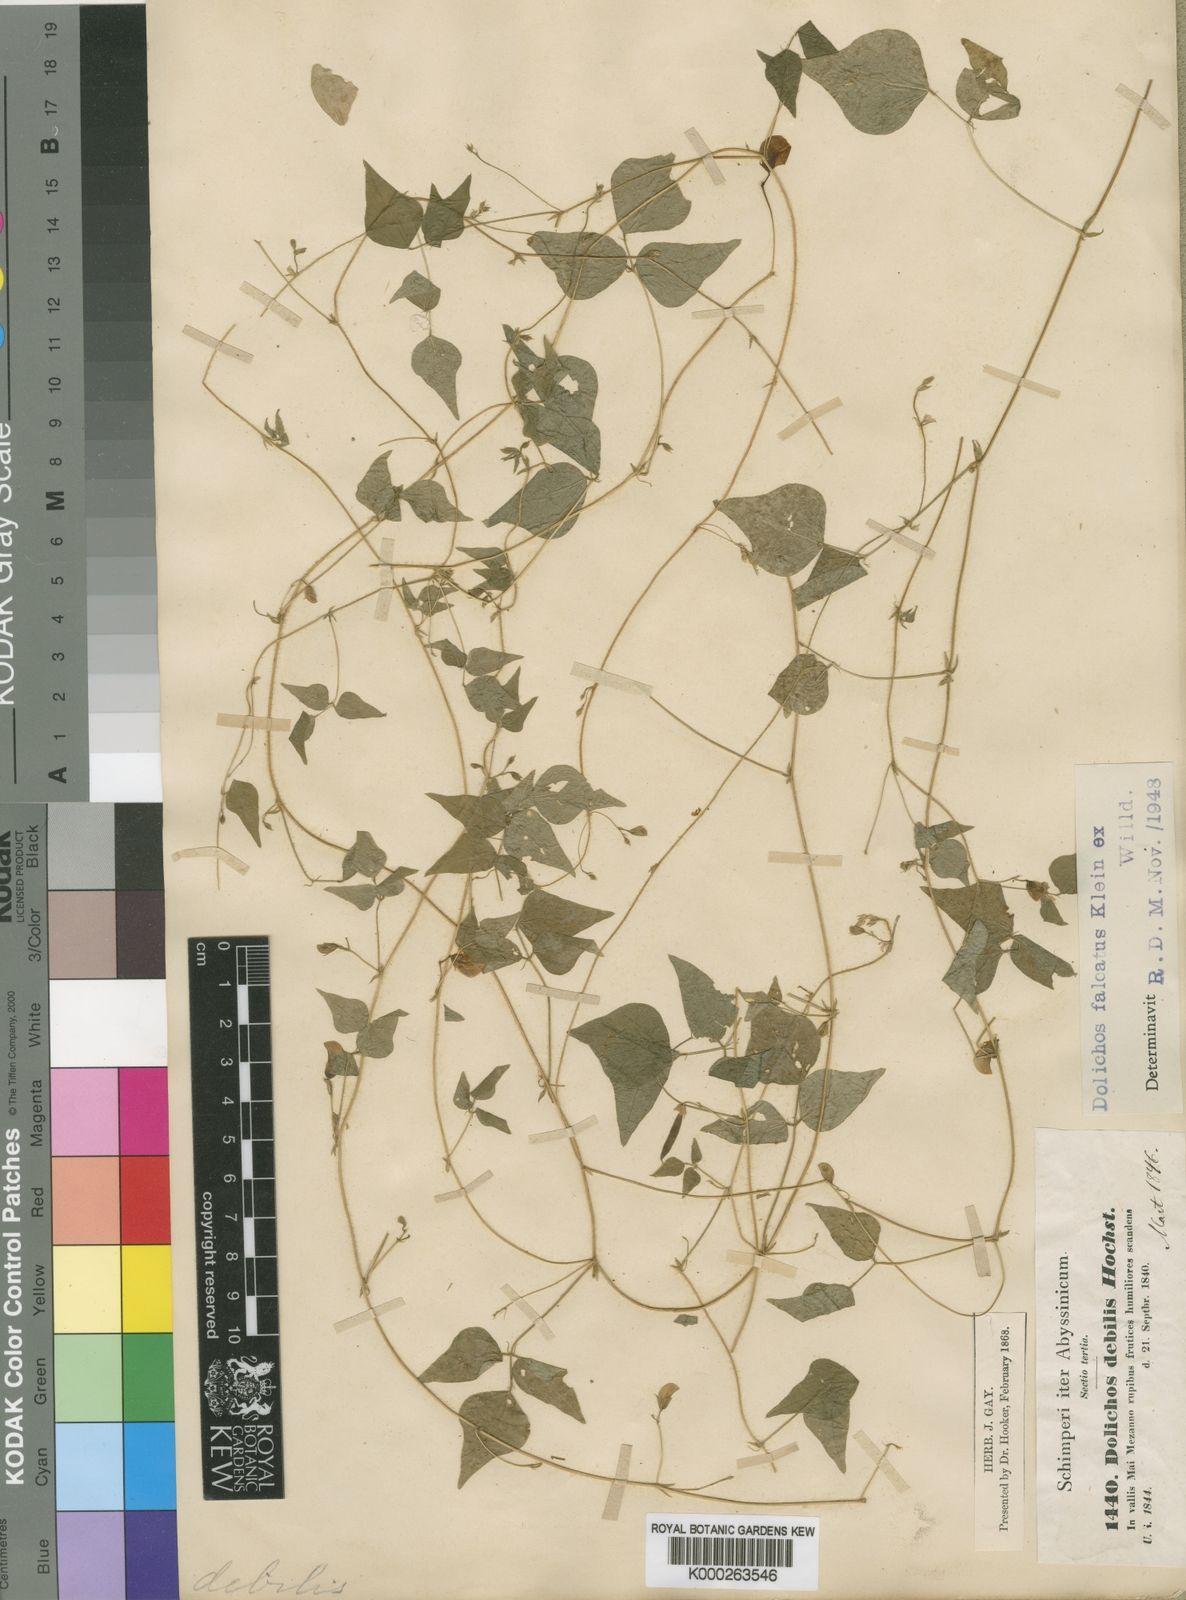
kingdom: Plantae
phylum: Tracheophyta
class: Magnoliopsida
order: Fabales
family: Fabaceae
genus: Dolichos
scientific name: Dolichos trilobus
